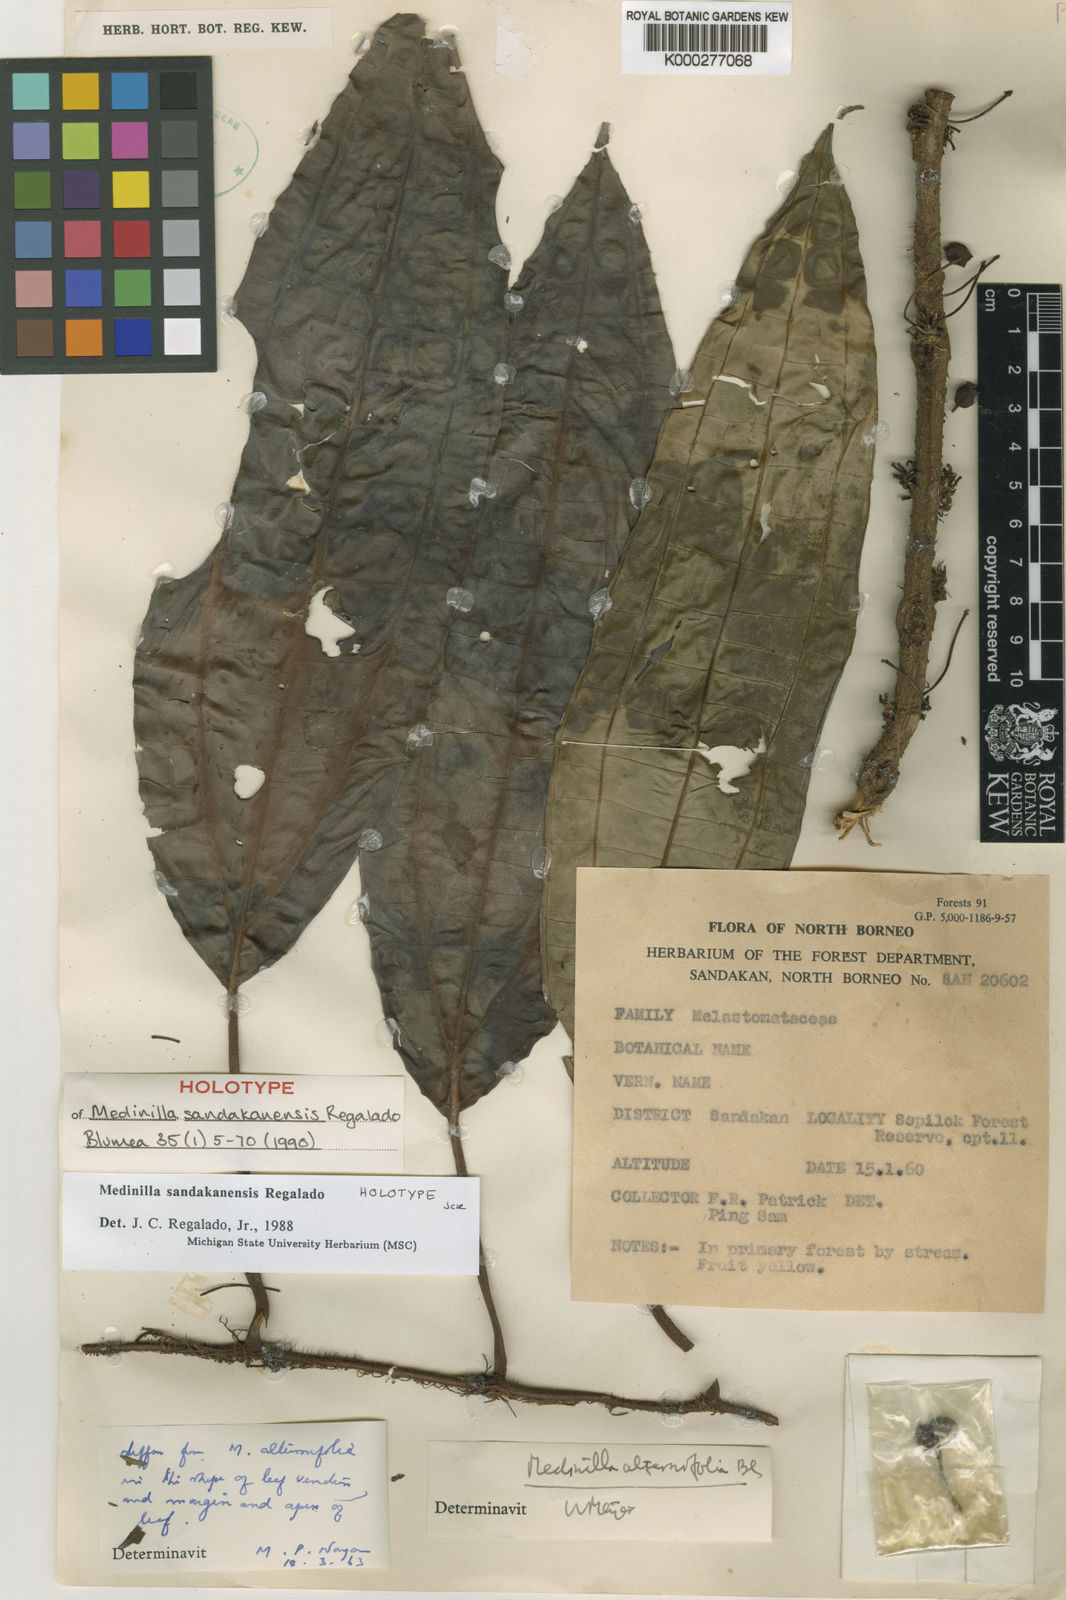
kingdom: Plantae
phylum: Tracheophyta
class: Magnoliopsida
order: Myrtales
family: Melastomataceae
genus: Heteroblemma
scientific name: Heteroblemma sandakanense
